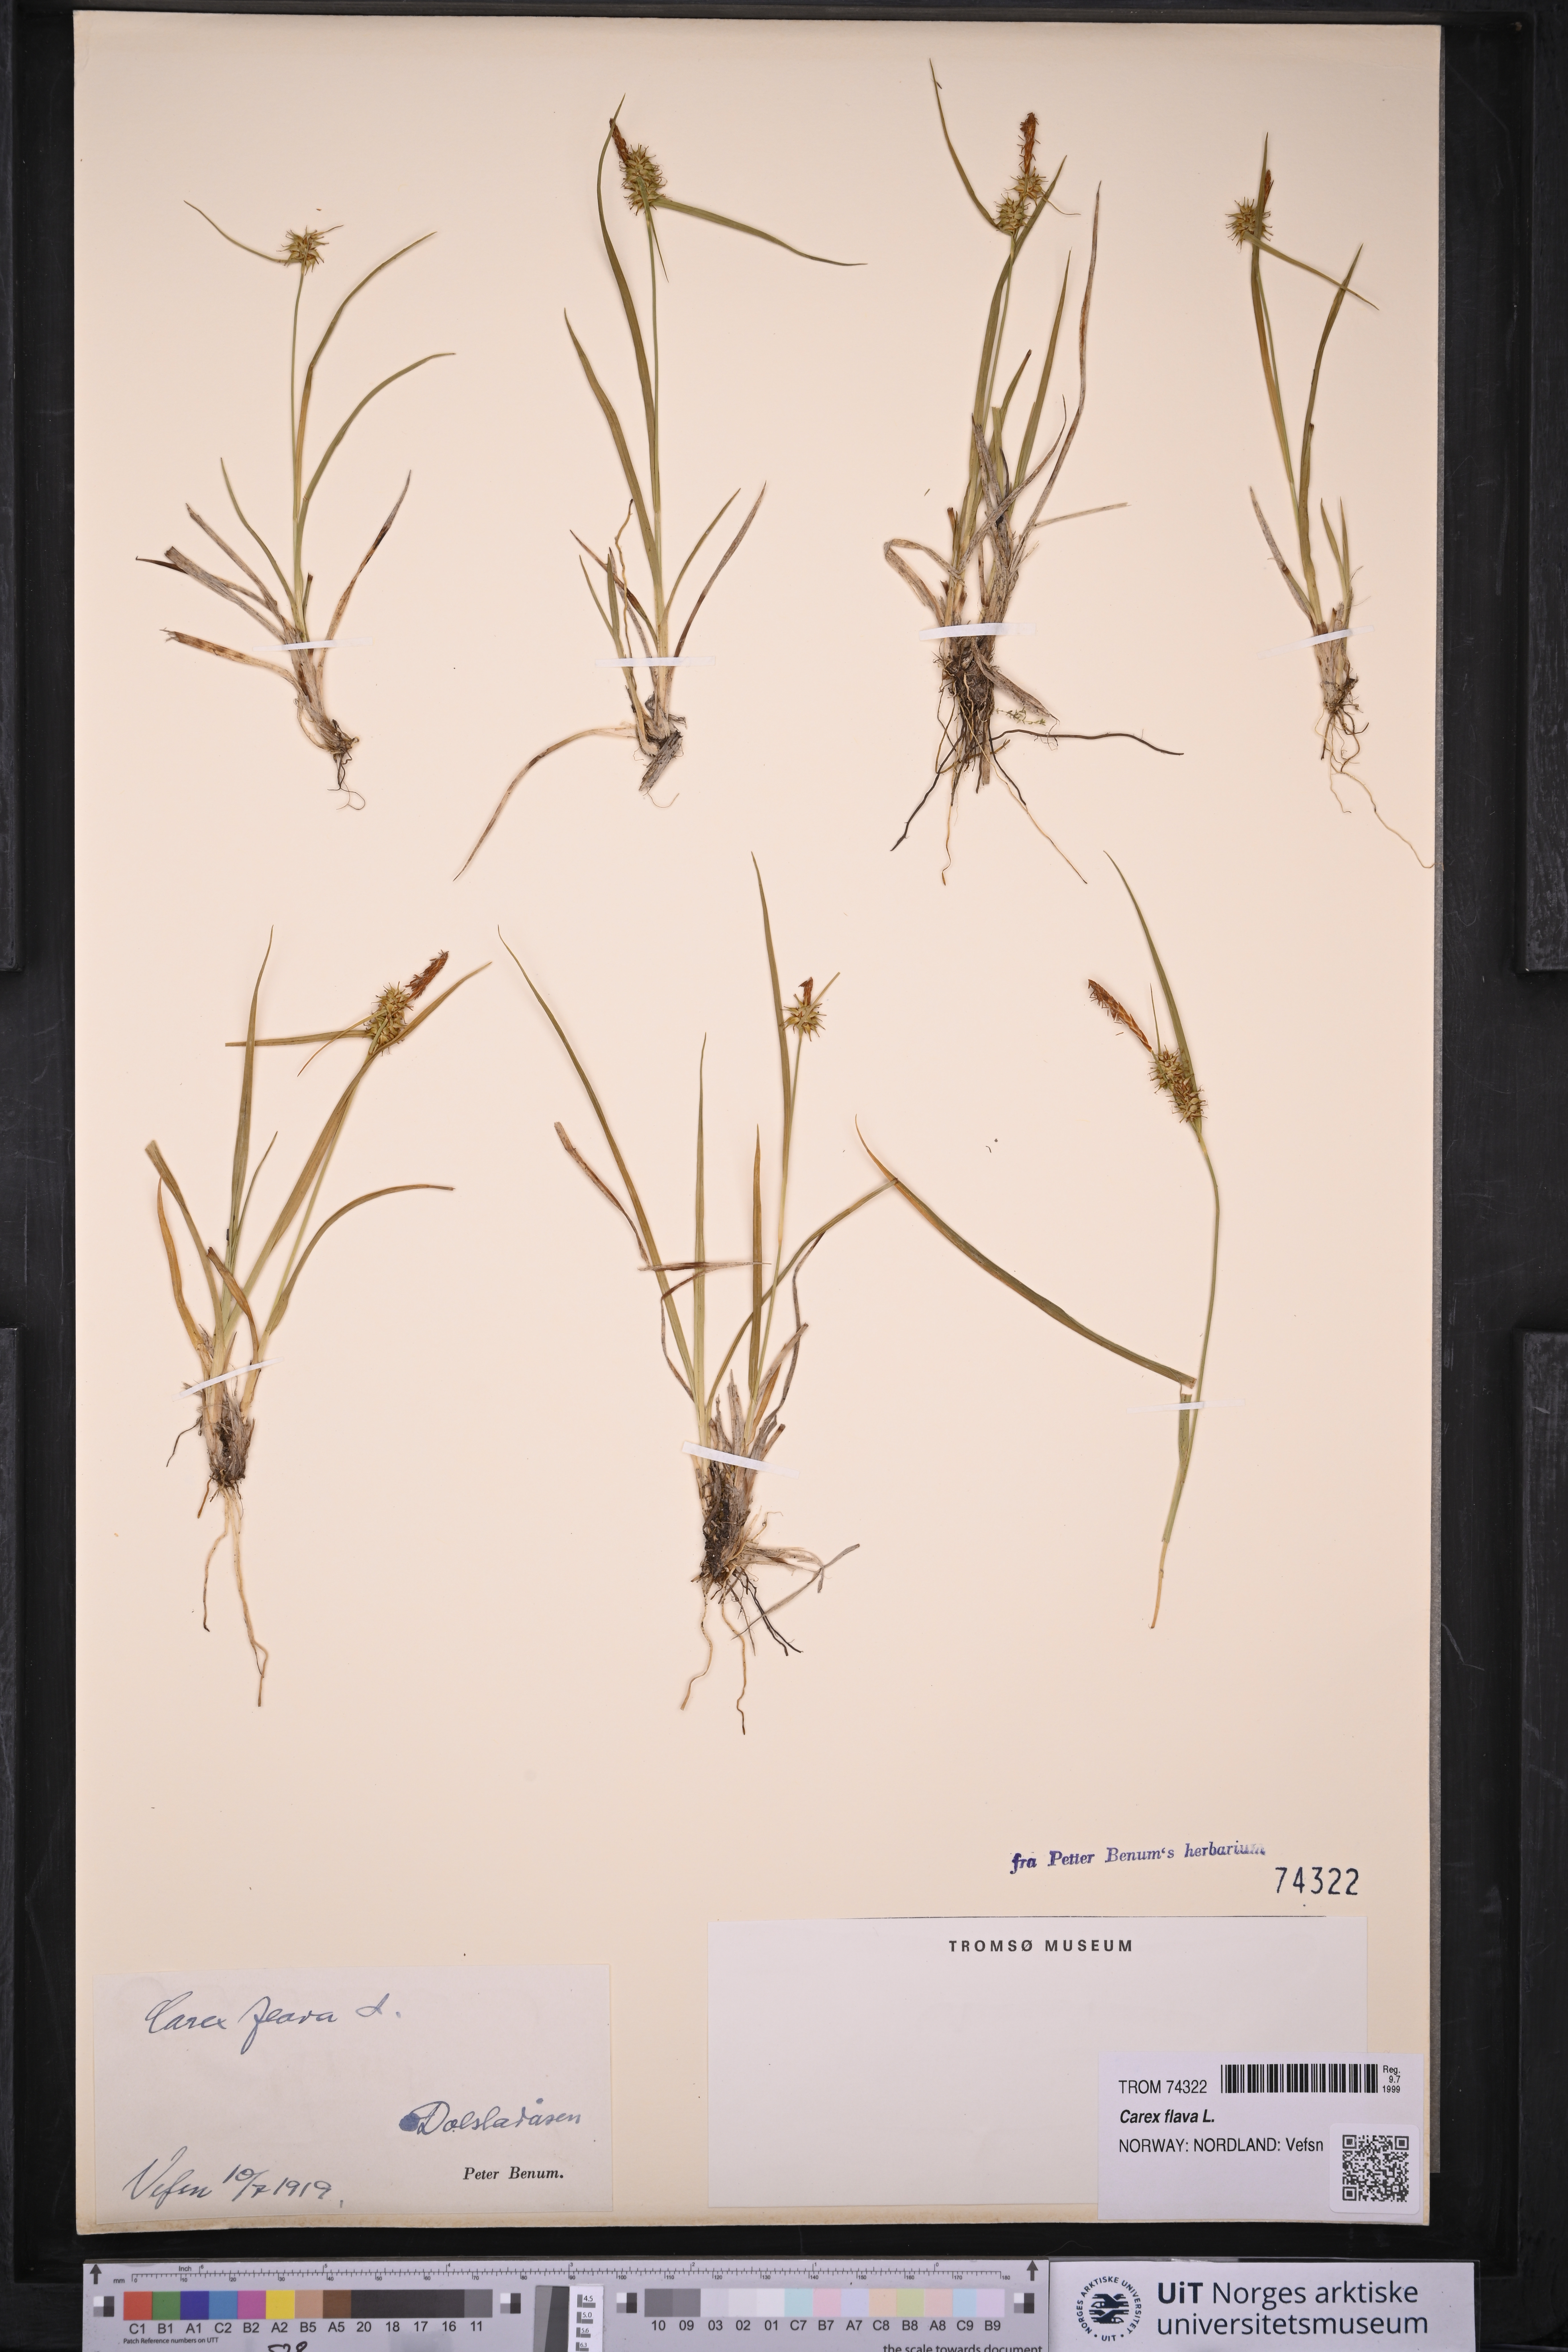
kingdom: Plantae
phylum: Tracheophyta
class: Liliopsida
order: Poales
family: Cyperaceae
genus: Carex
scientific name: Carex flava
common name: Large yellow-sedge
